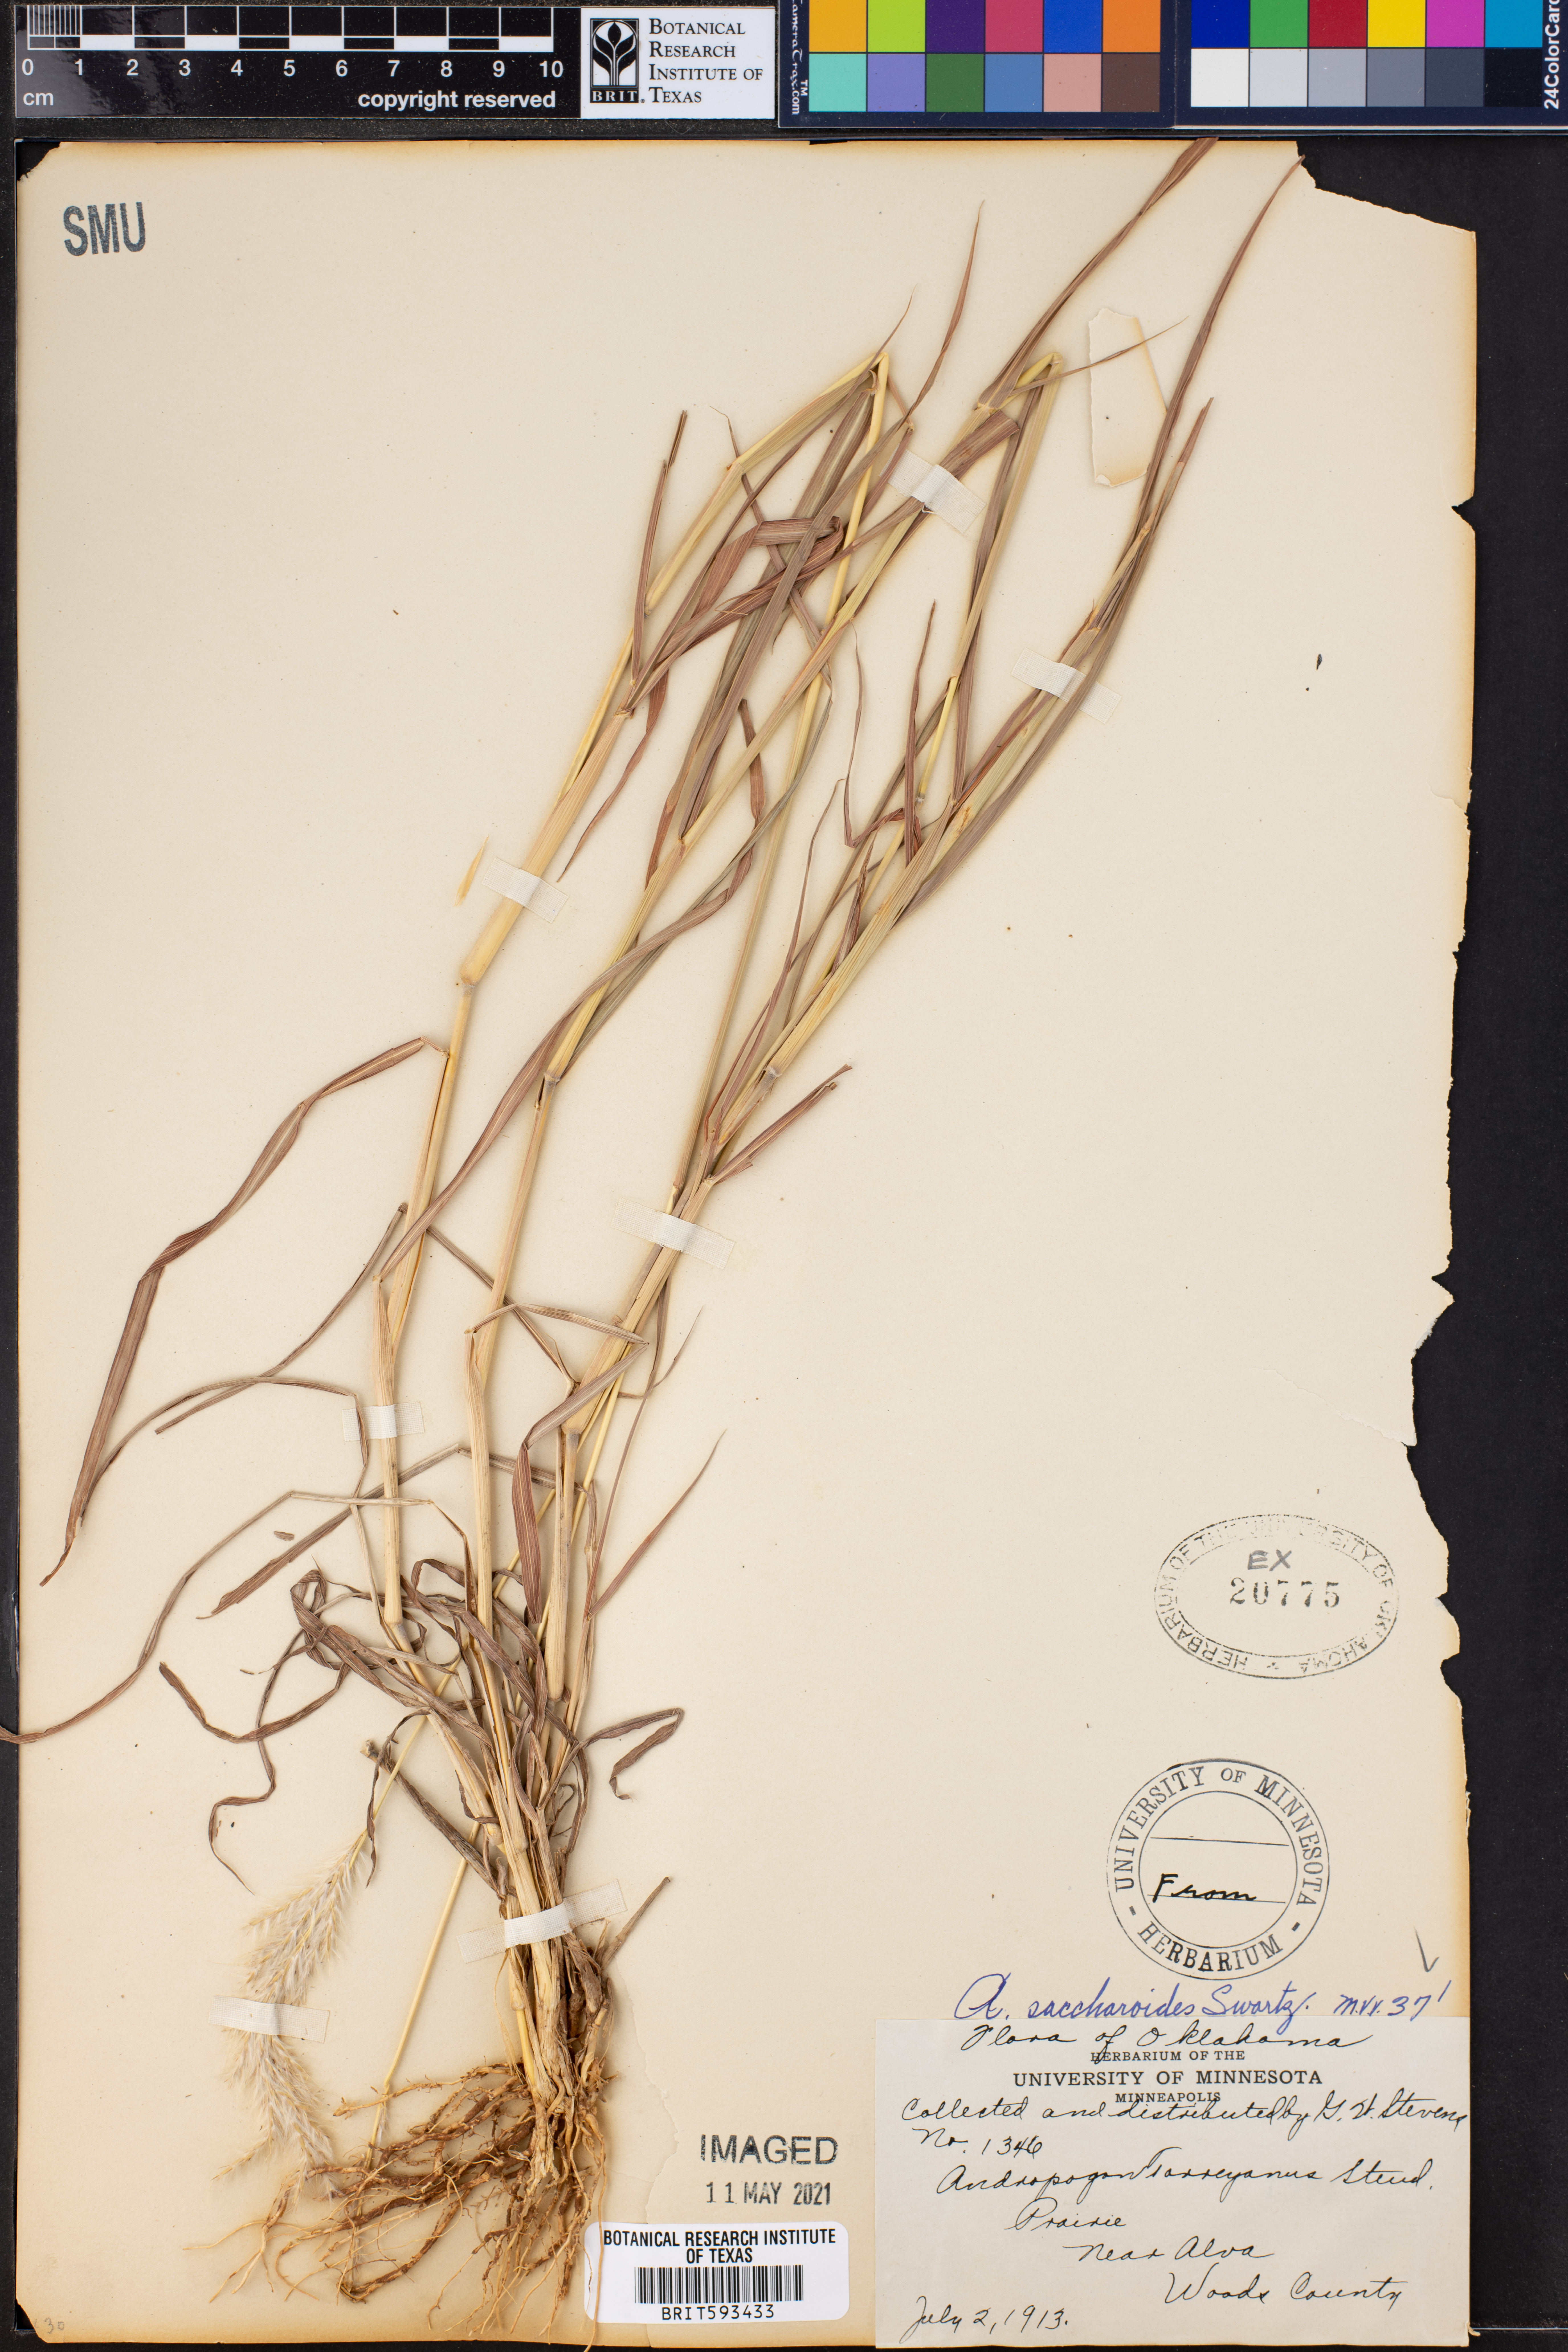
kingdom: Plantae
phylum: Tracheophyta
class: Liliopsida
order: Poales
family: Poaceae
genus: Bothriochloa
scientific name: Bothriochloa saccharoides
